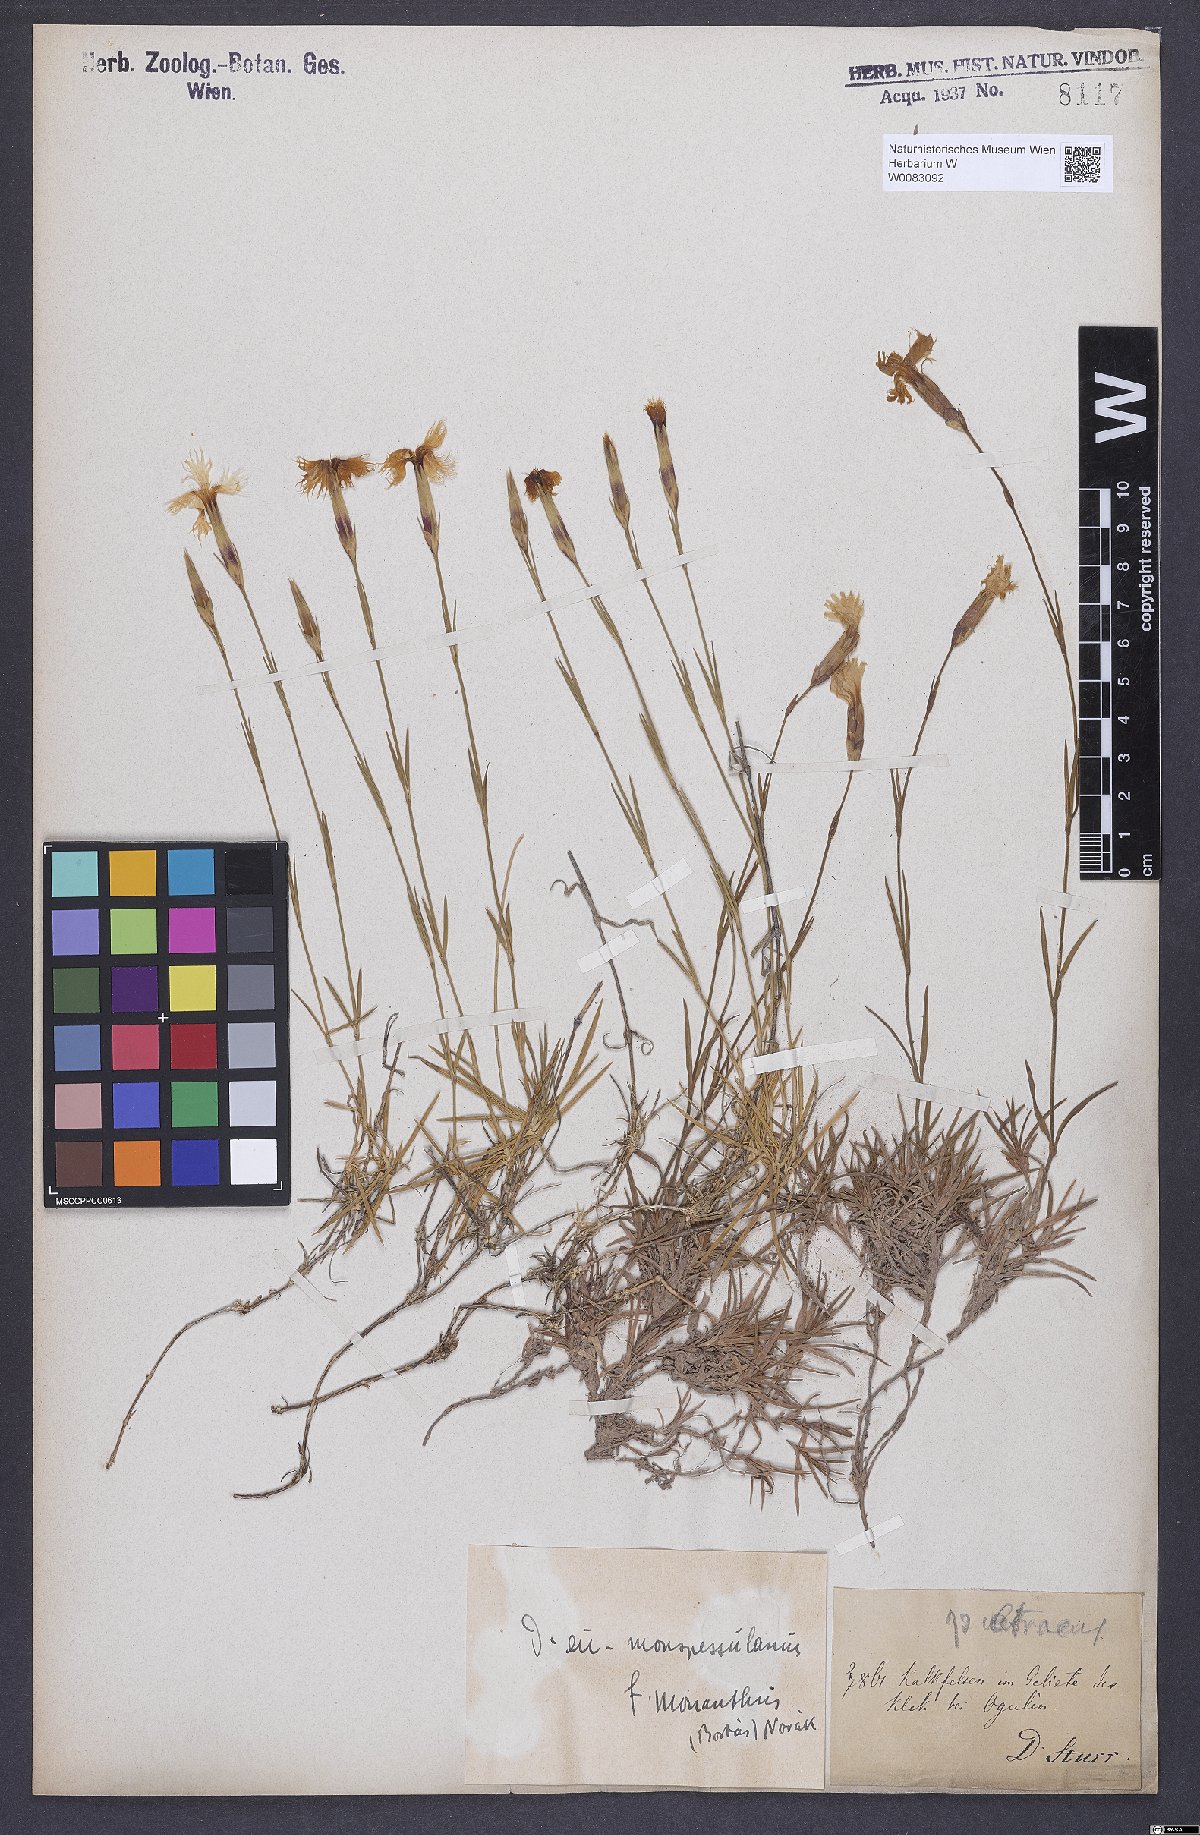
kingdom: Plantae
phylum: Tracheophyta
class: Magnoliopsida
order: Caryophyllales
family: Caryophyllaceae
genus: Dianthus
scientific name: Dianthus
